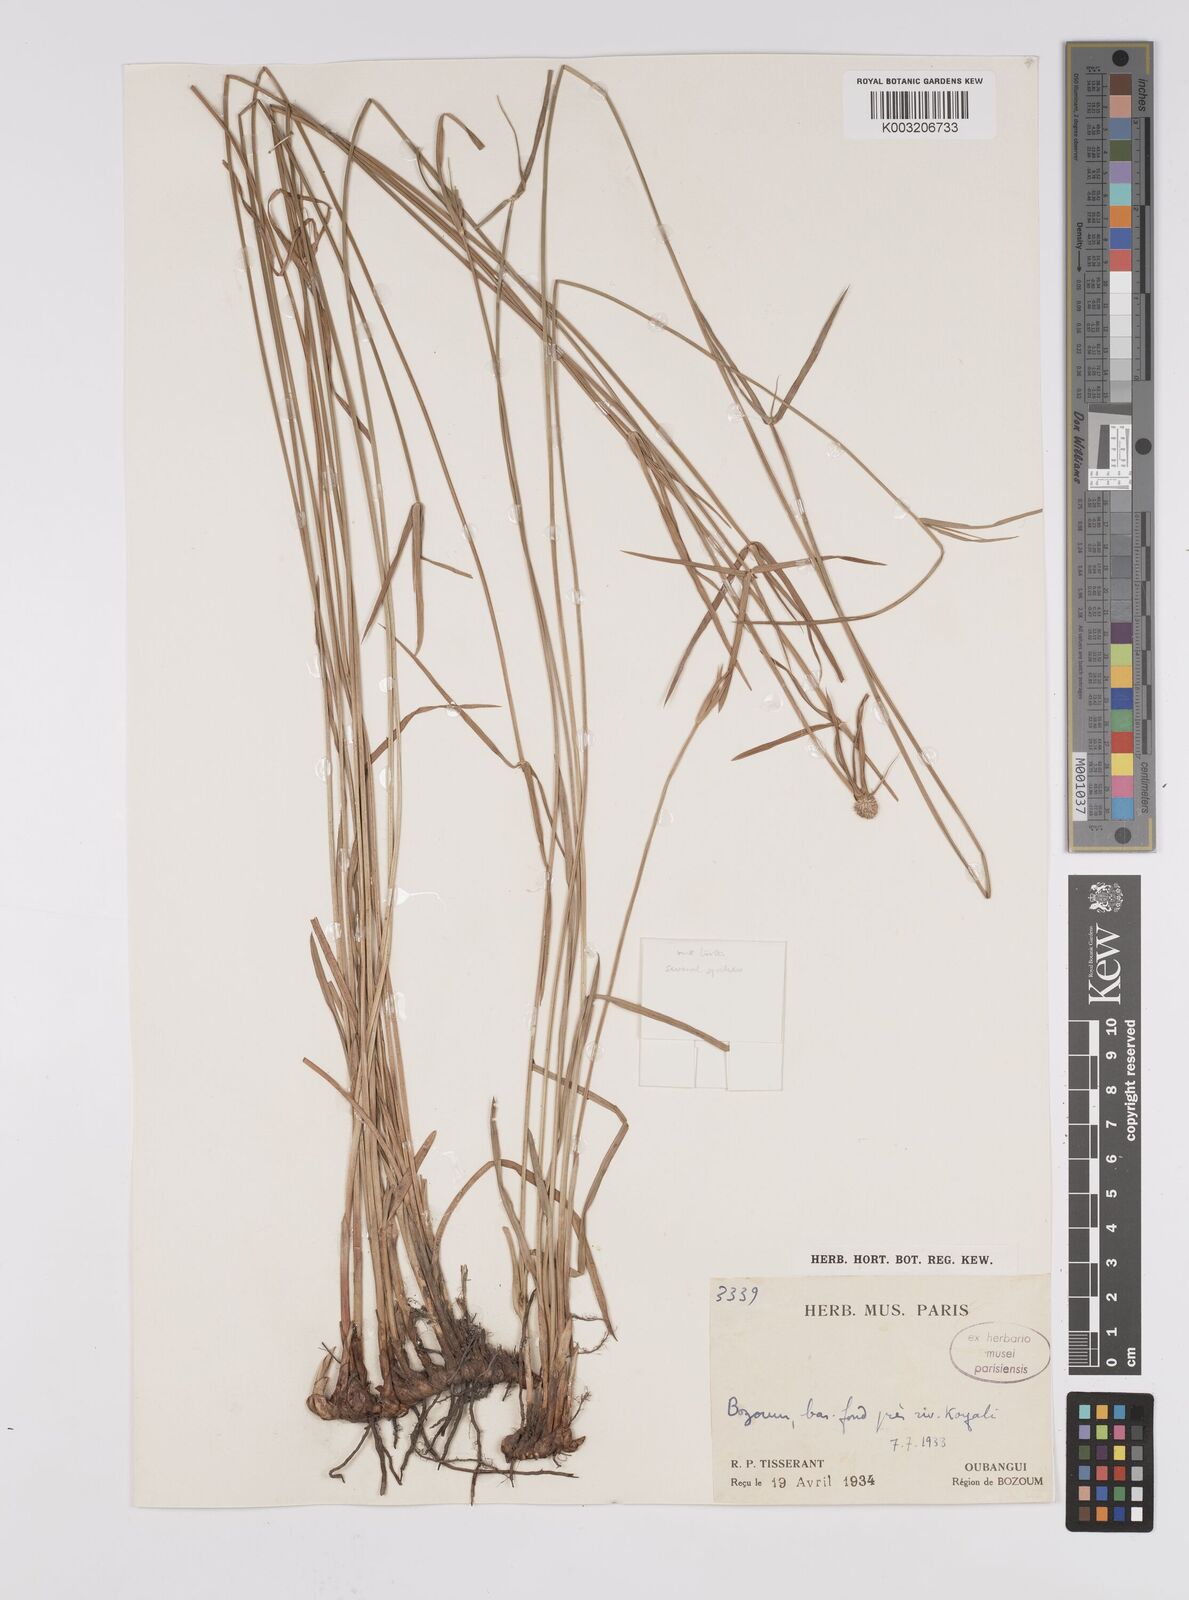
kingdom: Plantae
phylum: Tracheophyta
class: Liliopsida
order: Poales
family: Cyperaceae
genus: Cyperus
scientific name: Cyperus
